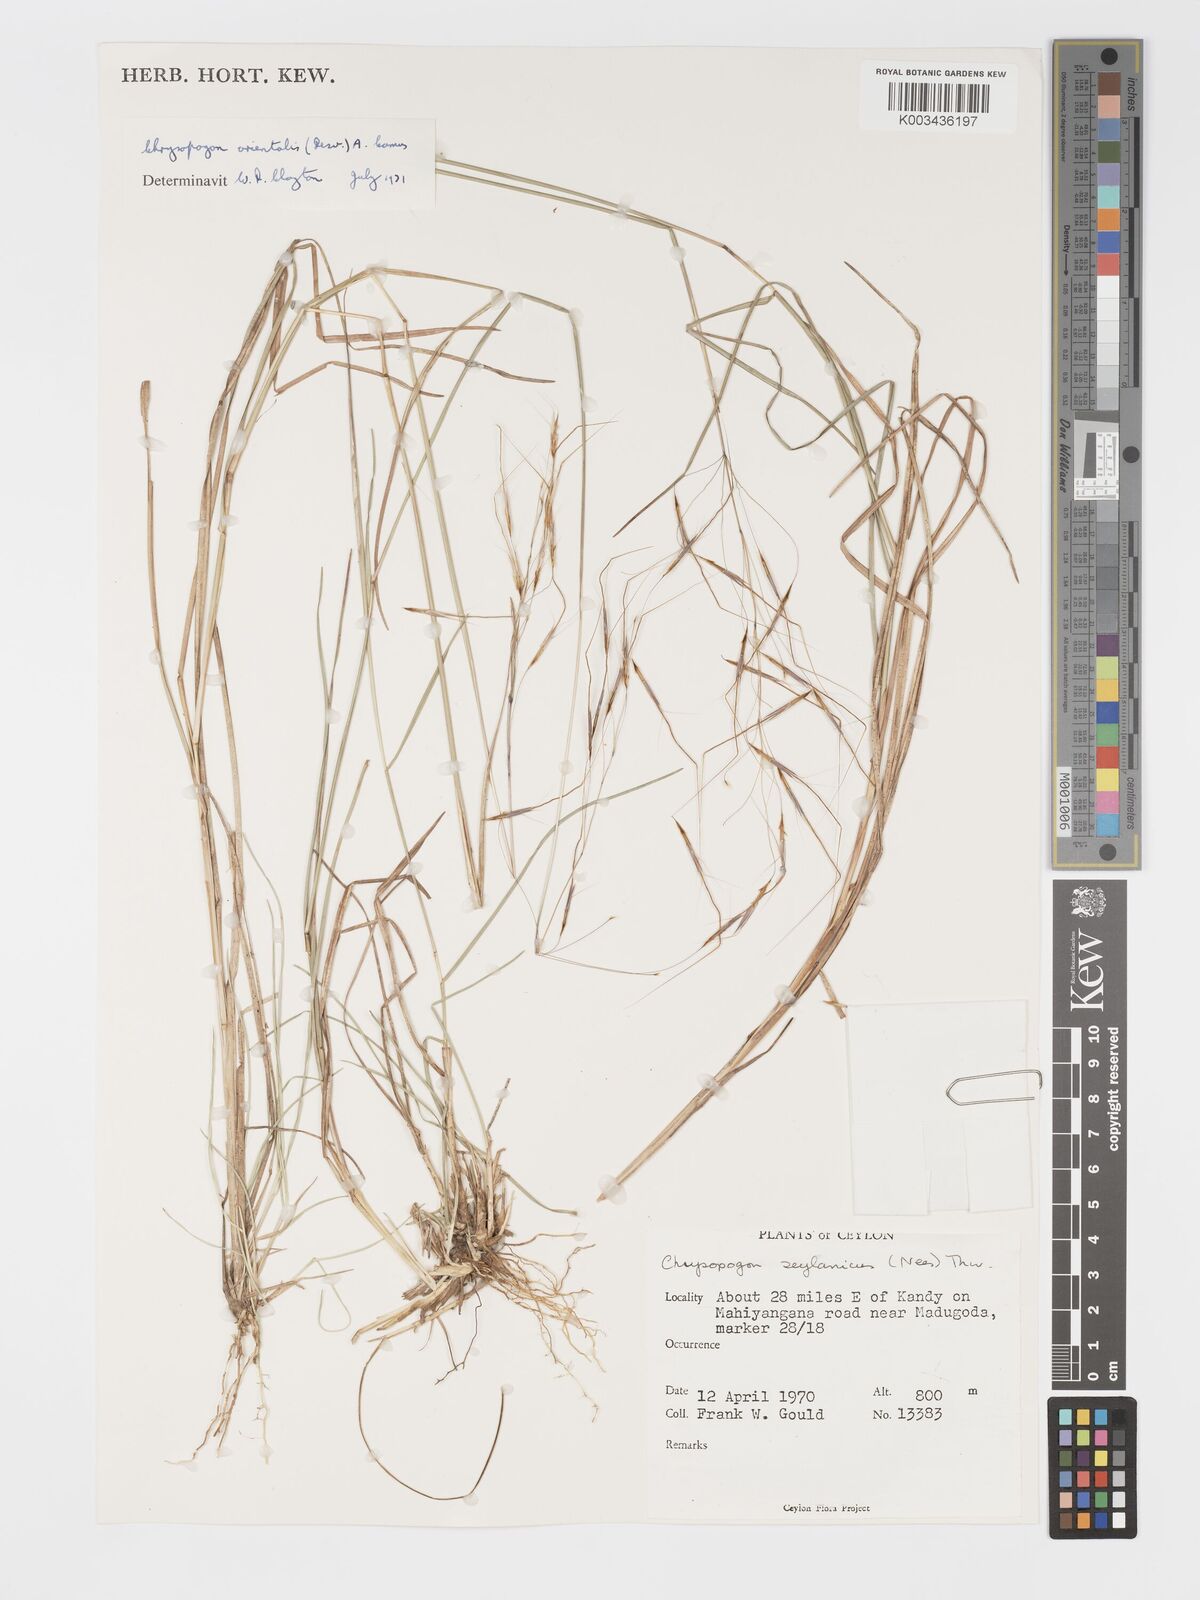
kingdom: Plantae
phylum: Tracheophyta
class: Liliopsida
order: Poales
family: Poaceae
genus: Chrysopogon
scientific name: Chrysopogon orientalis
